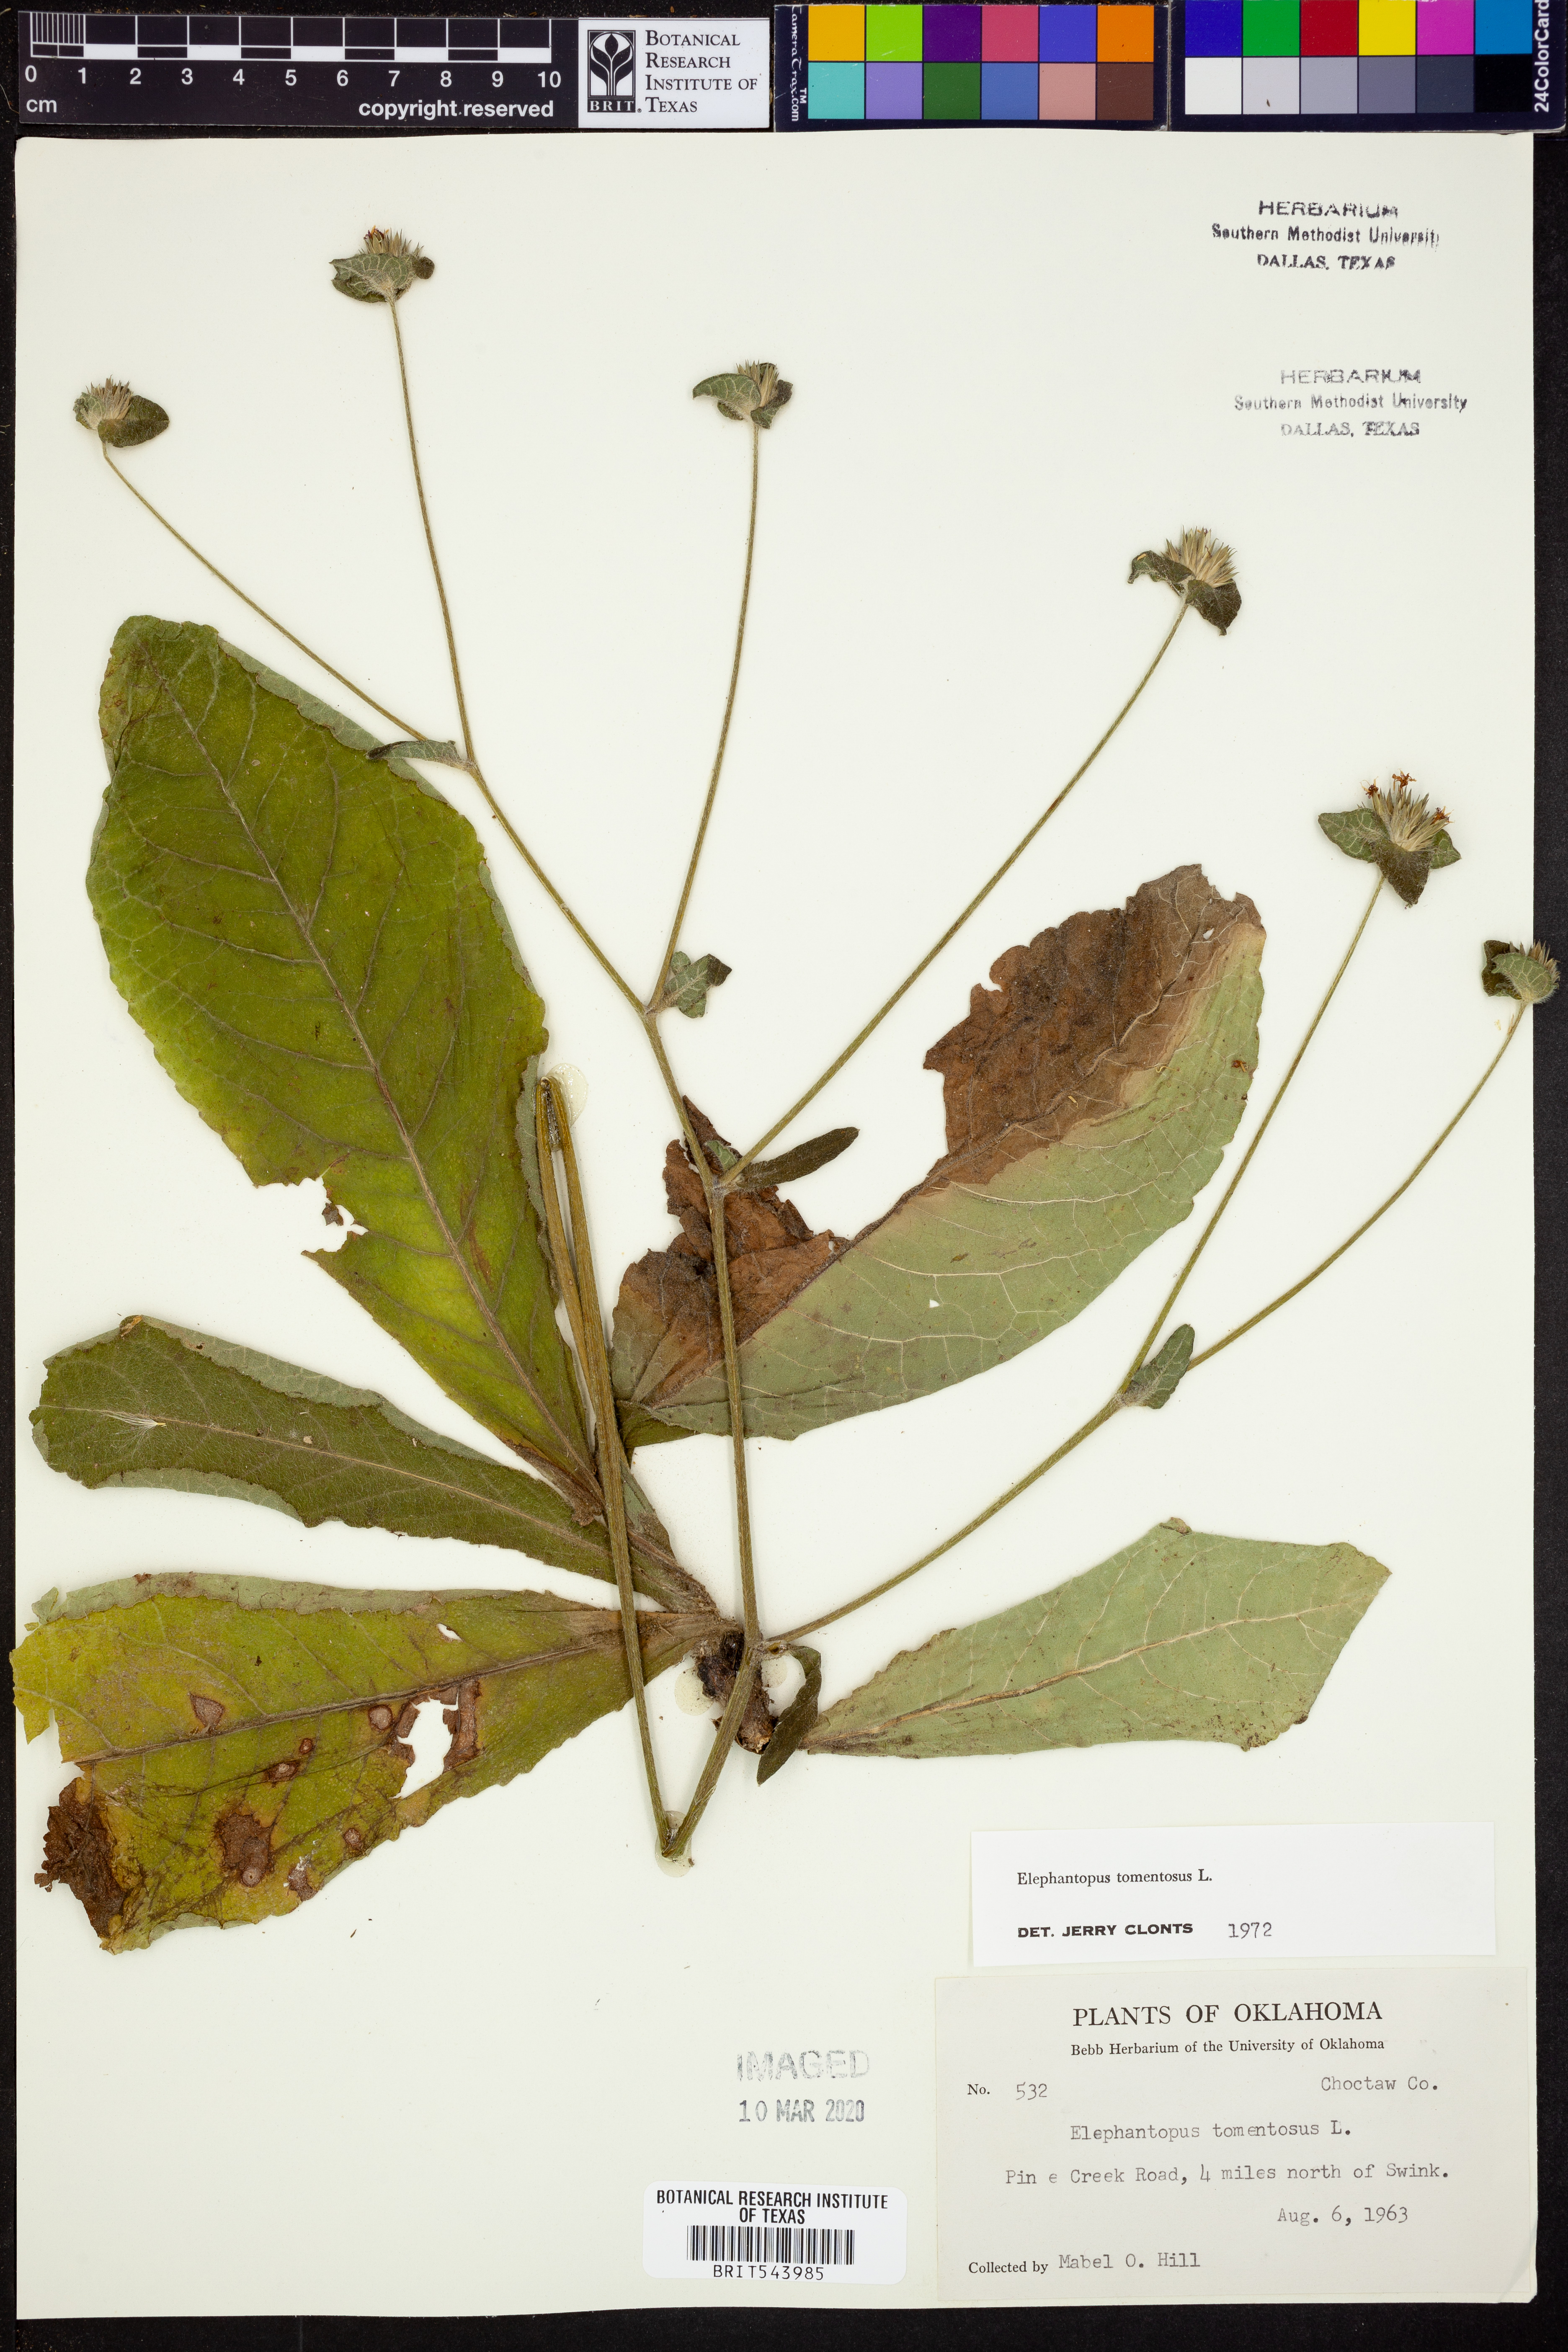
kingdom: Plantae
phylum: Tracheophyta
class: Magnoliopsida
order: Asterales
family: Asteraceae
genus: Elephantopus
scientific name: Elephantopus tomentosus
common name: Tobacco-weed
